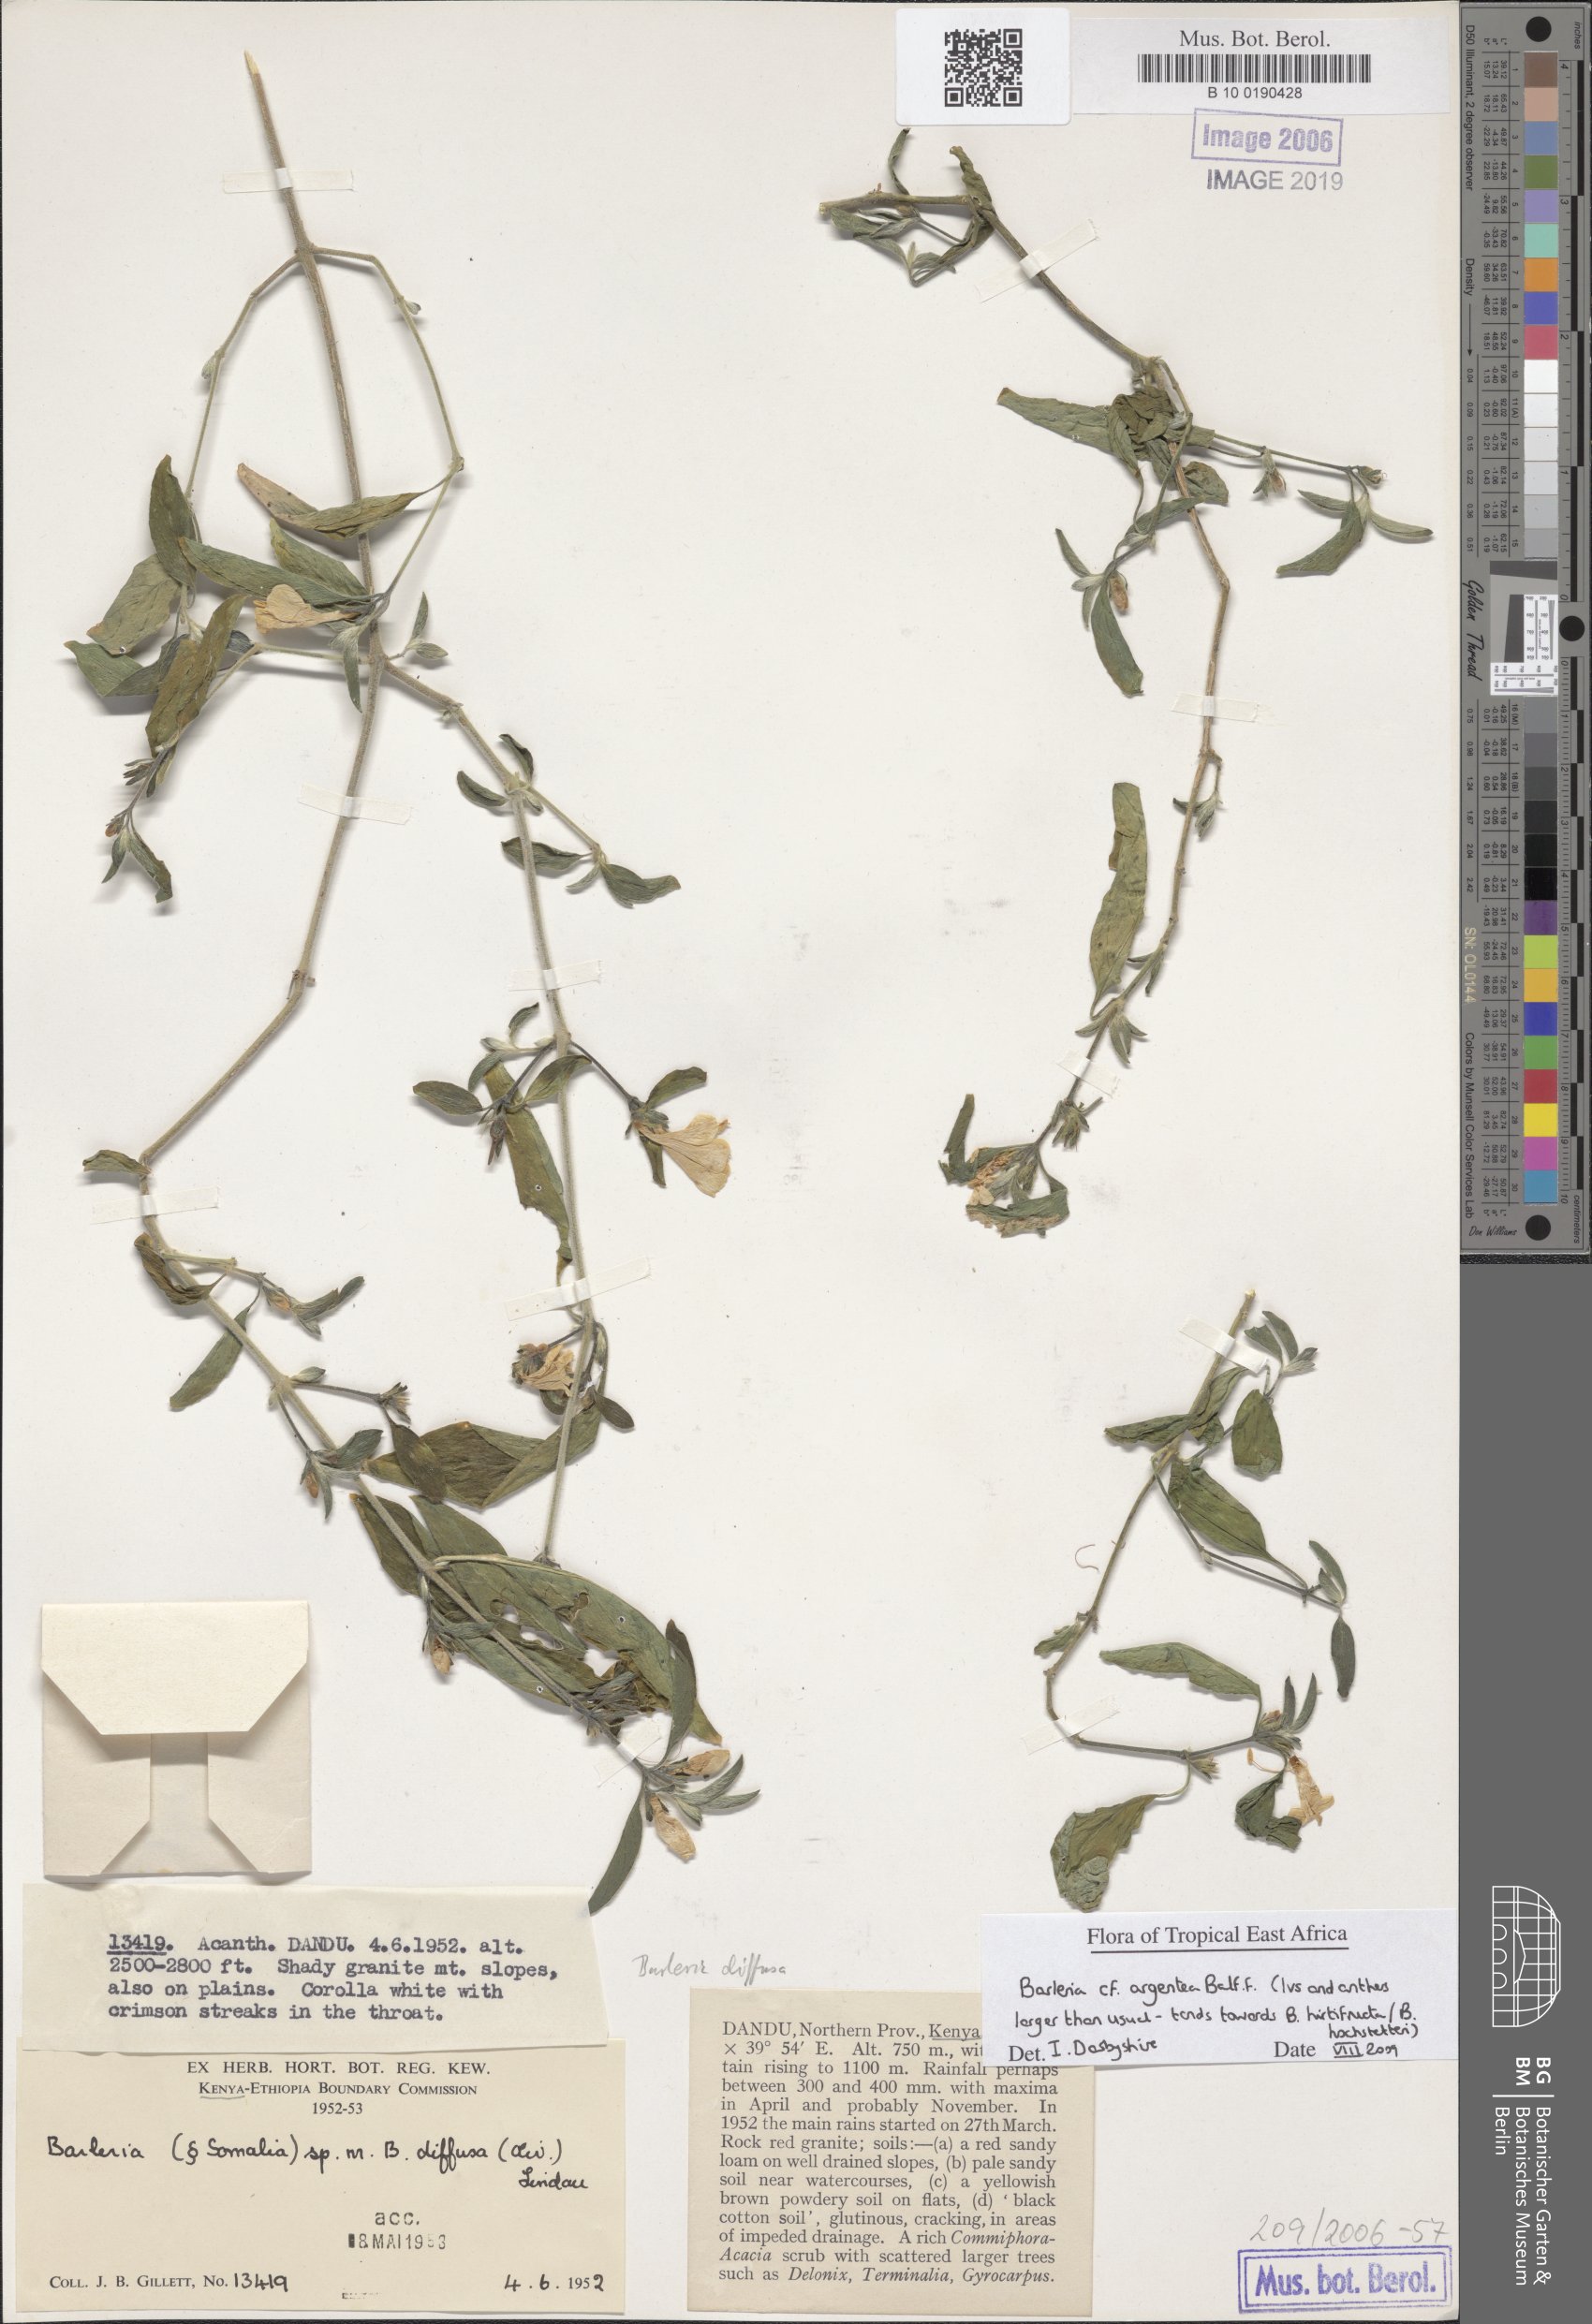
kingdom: Plantae
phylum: Tracheophyta
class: Magnoliopsida
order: Lamiales
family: Acanthaceae
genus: Barleria
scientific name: Barleria argentea
